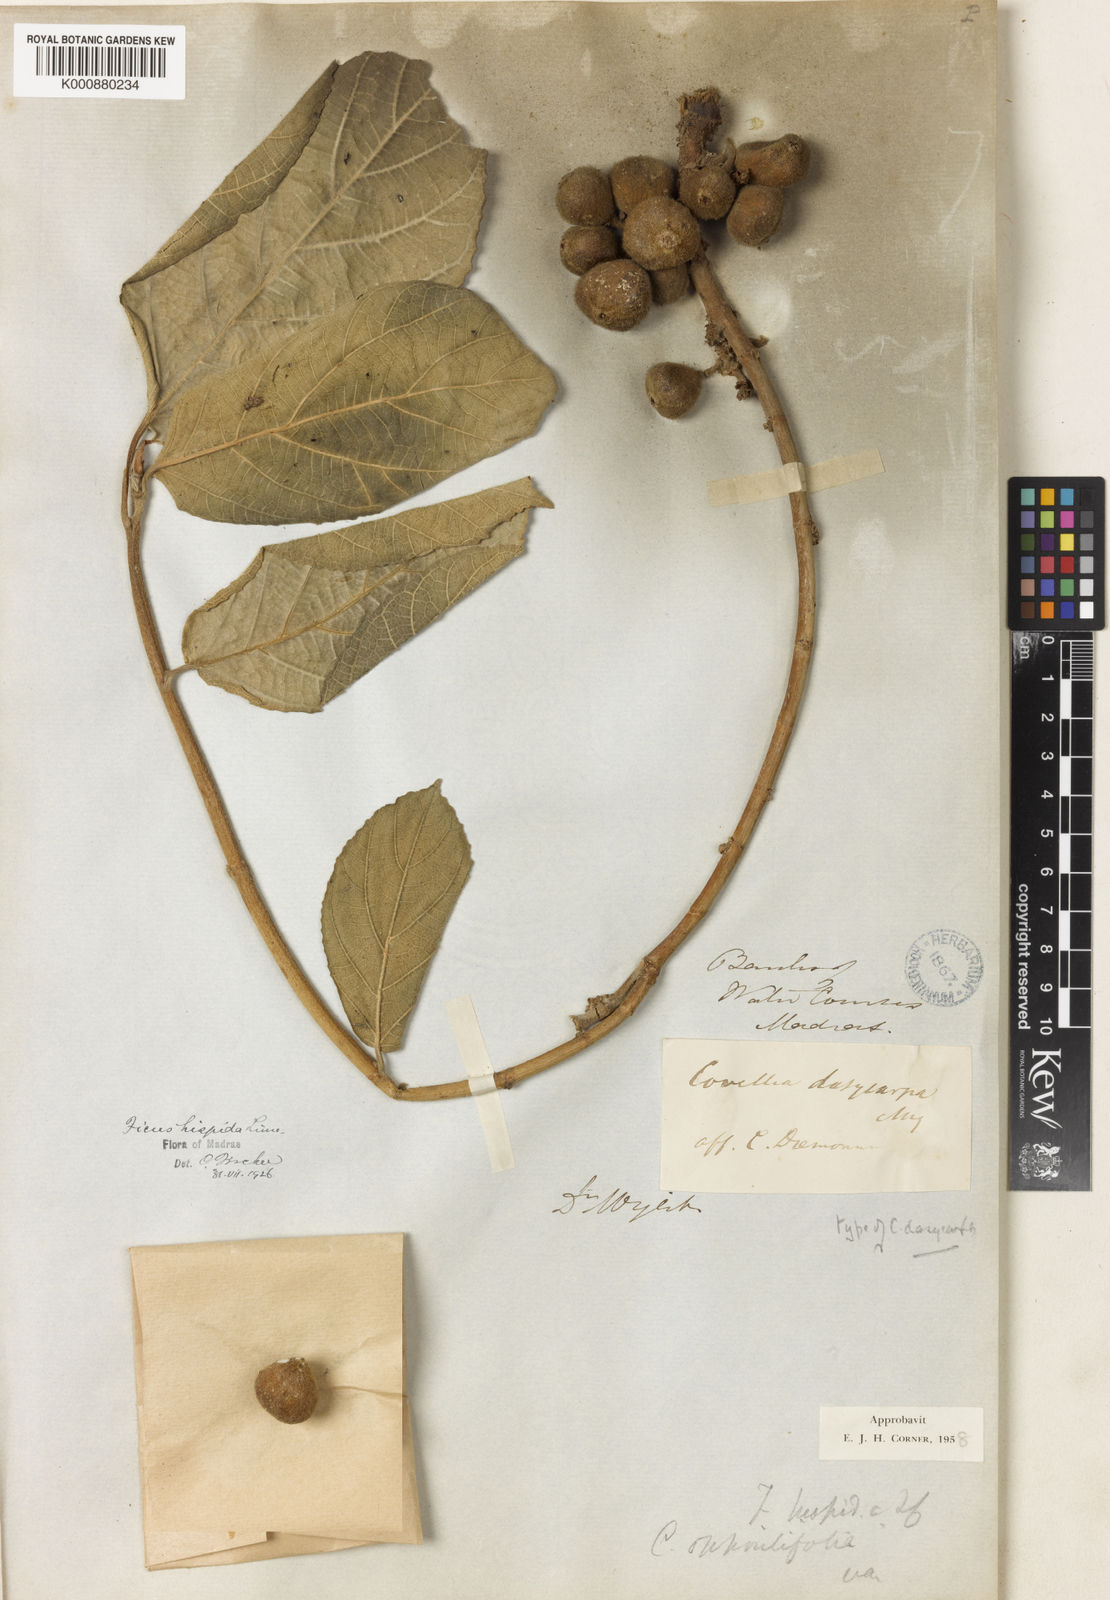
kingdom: Plantae
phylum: Tracheophyta
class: Magnoliopsida
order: Rosales
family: Moraceae
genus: Ficus
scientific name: Ficus hispida
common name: Hairy fig
